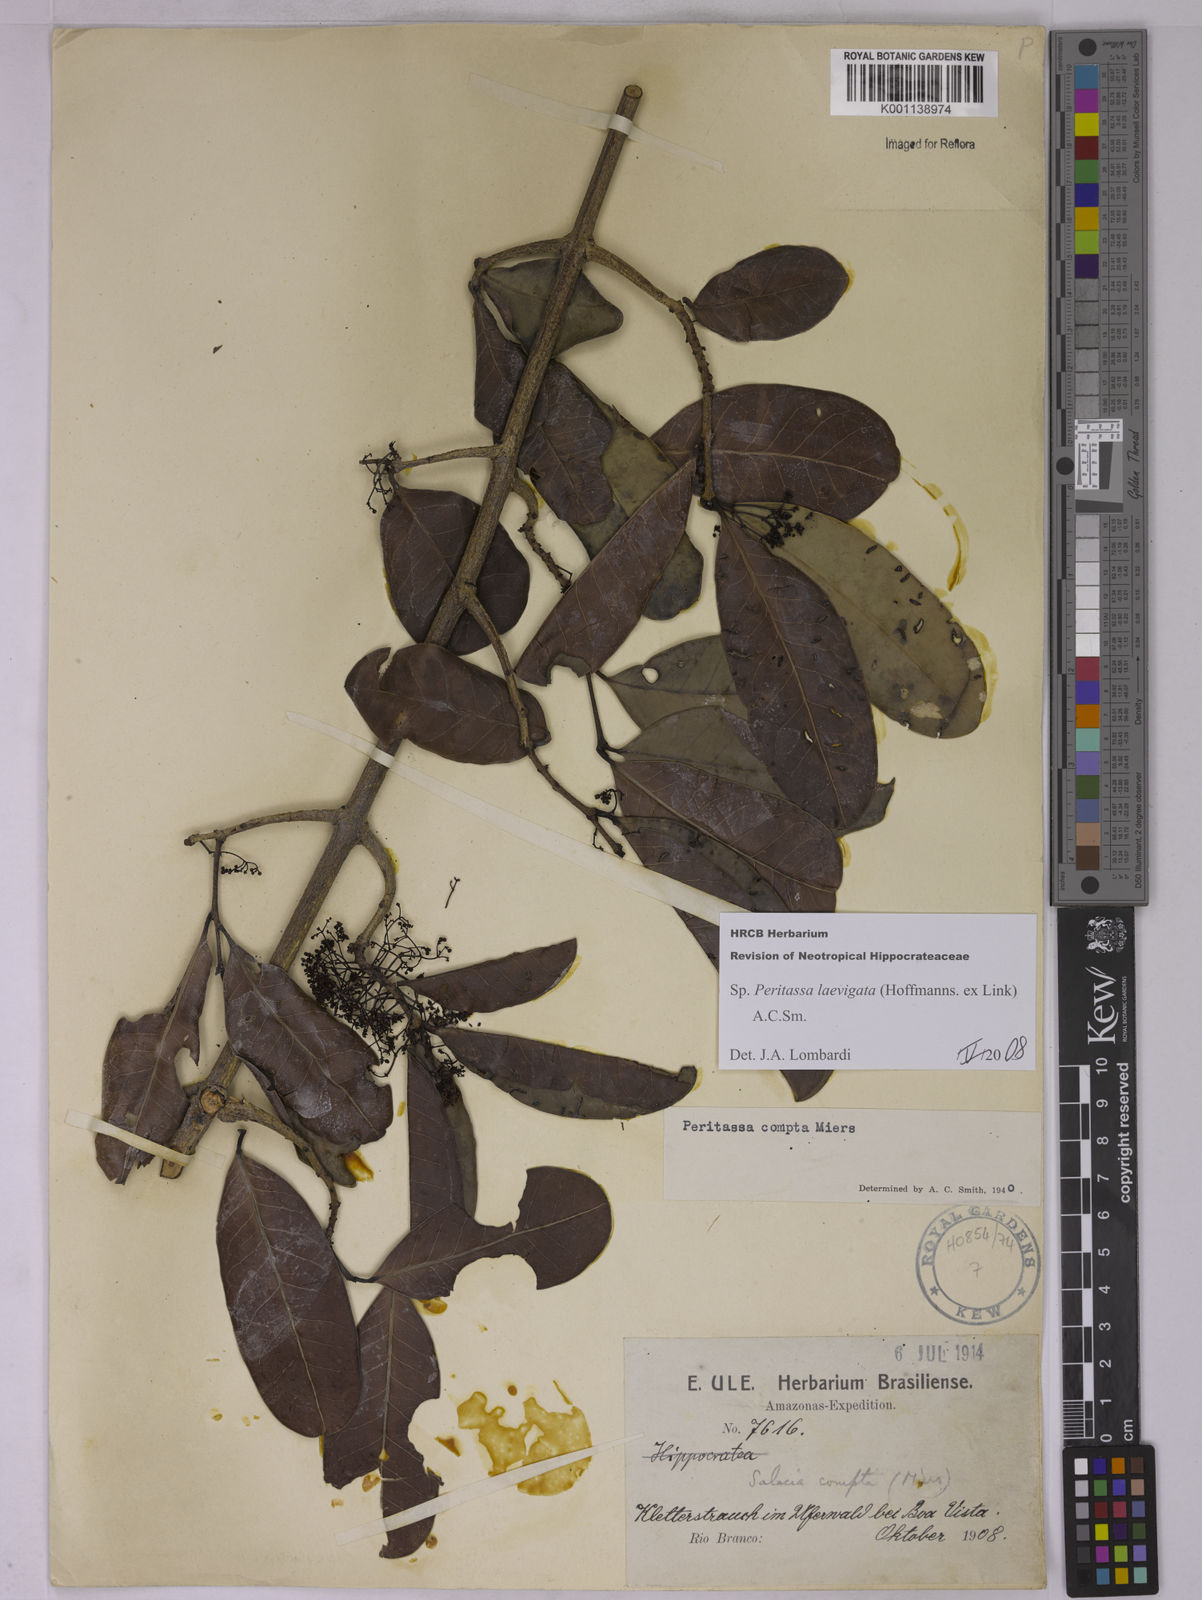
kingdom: Plantae
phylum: Tracheophyta
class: Magnoliopsida
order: Celastrales
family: Celastraceae
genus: Peritassa
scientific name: Peritassa laevigata
